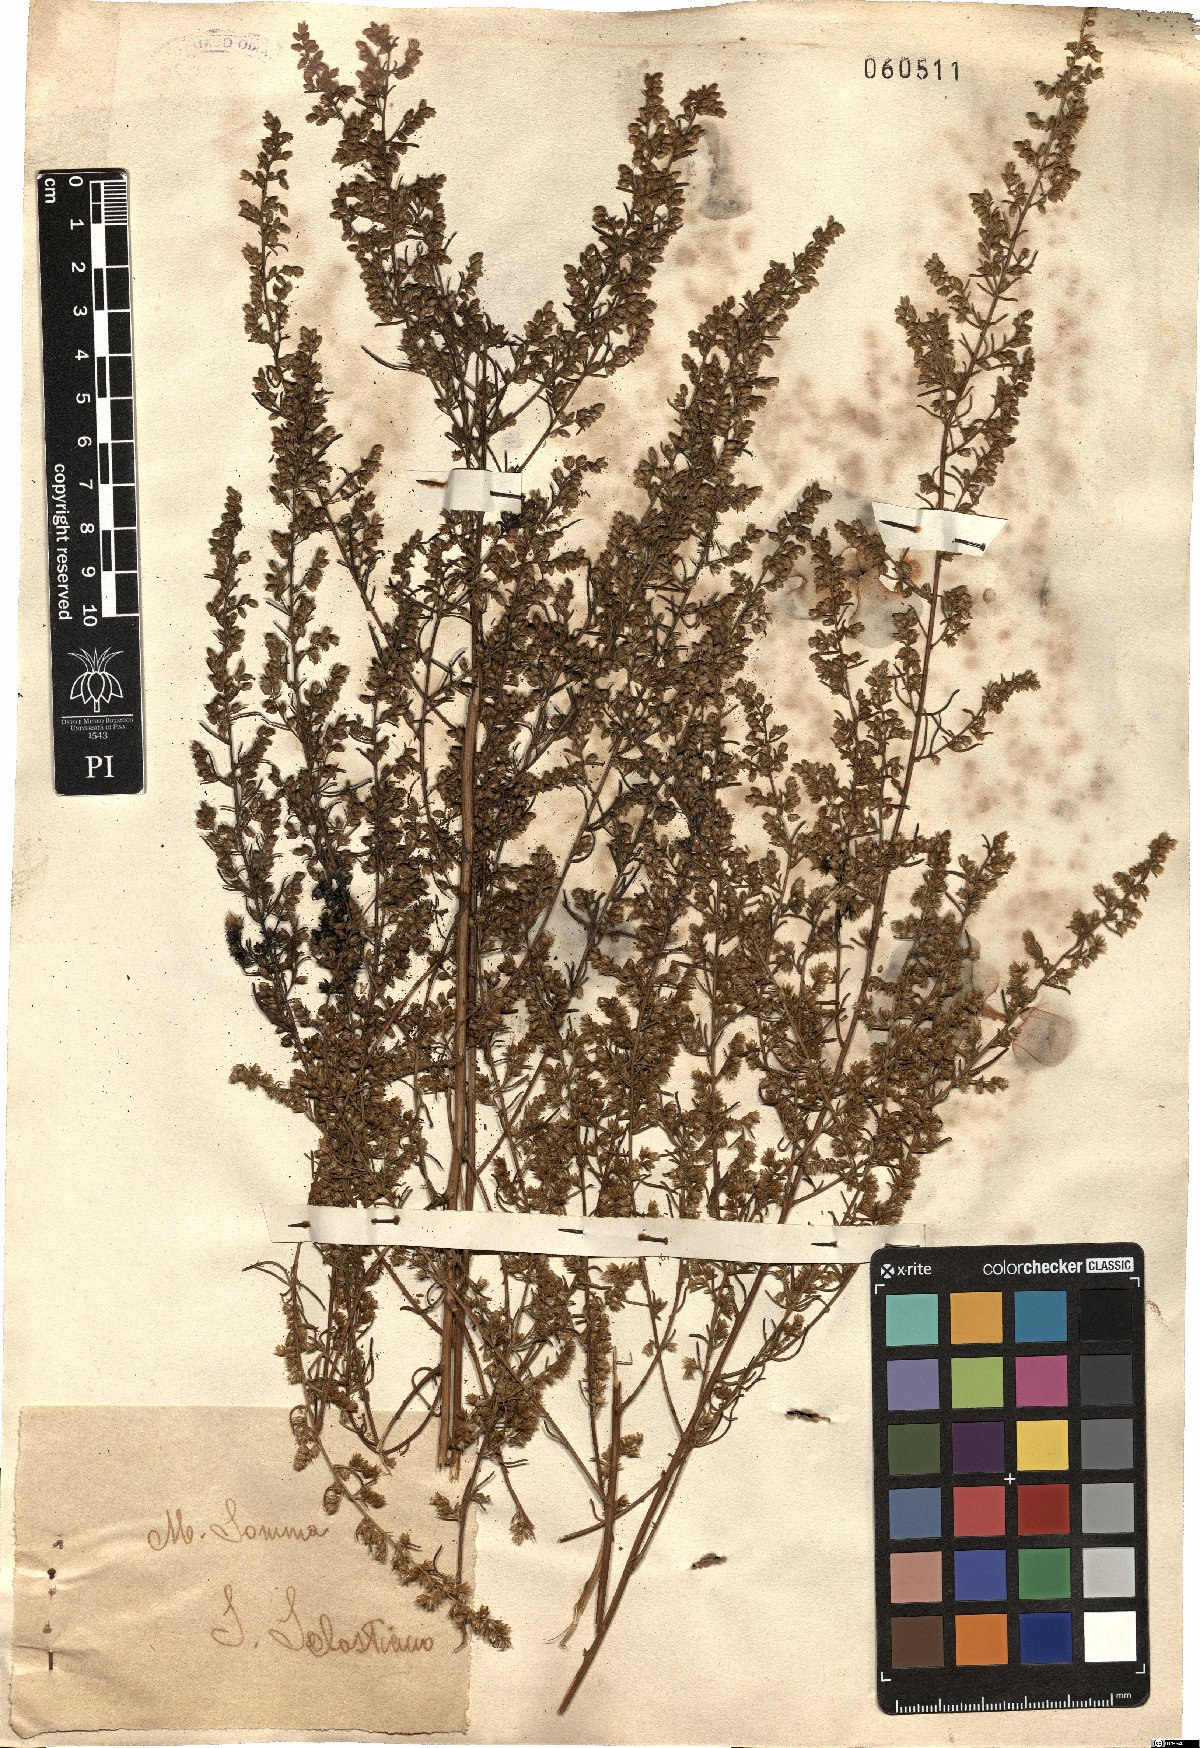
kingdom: Plantae
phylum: Tracheophyta
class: Magnoliopsida
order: Asterales
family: Asteraceae
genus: Artemisia
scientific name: Artemisia
